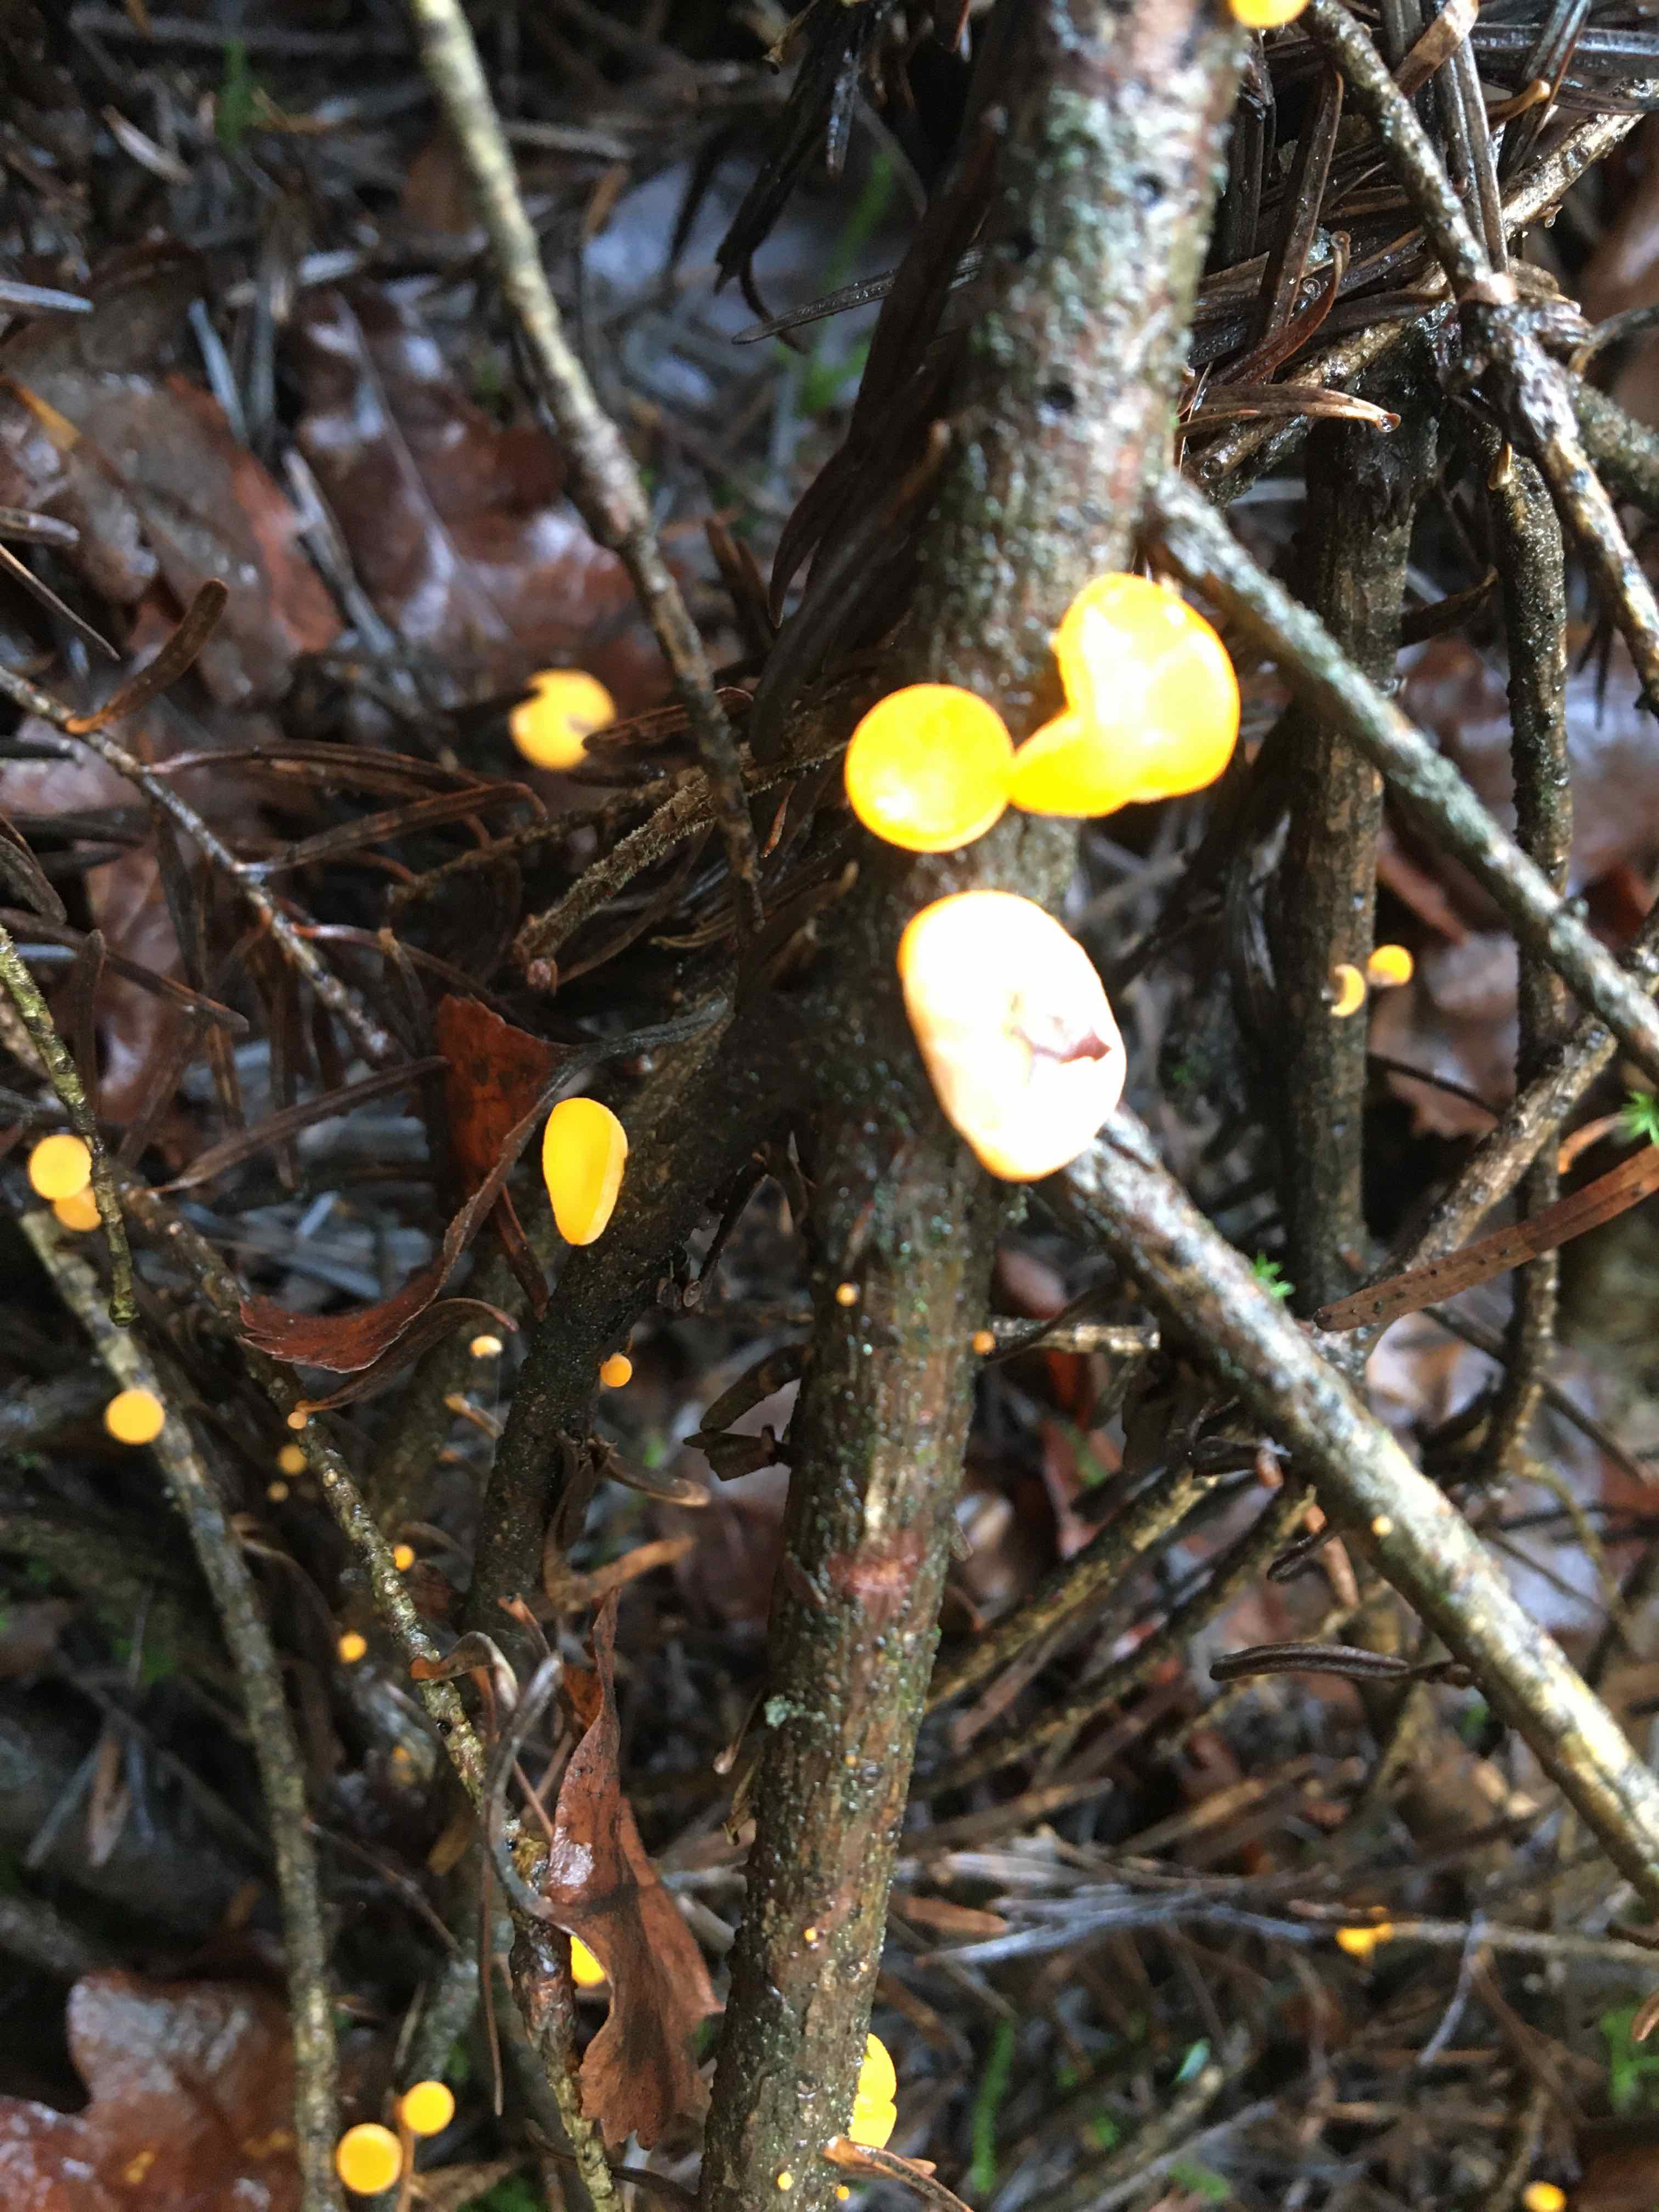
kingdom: Fungi
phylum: Ascomycota
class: Pezizomycetes
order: Pezizales
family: Sarcoscyphaceae
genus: Pithya
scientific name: Pithya vulgaris
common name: stor dukatbæger
